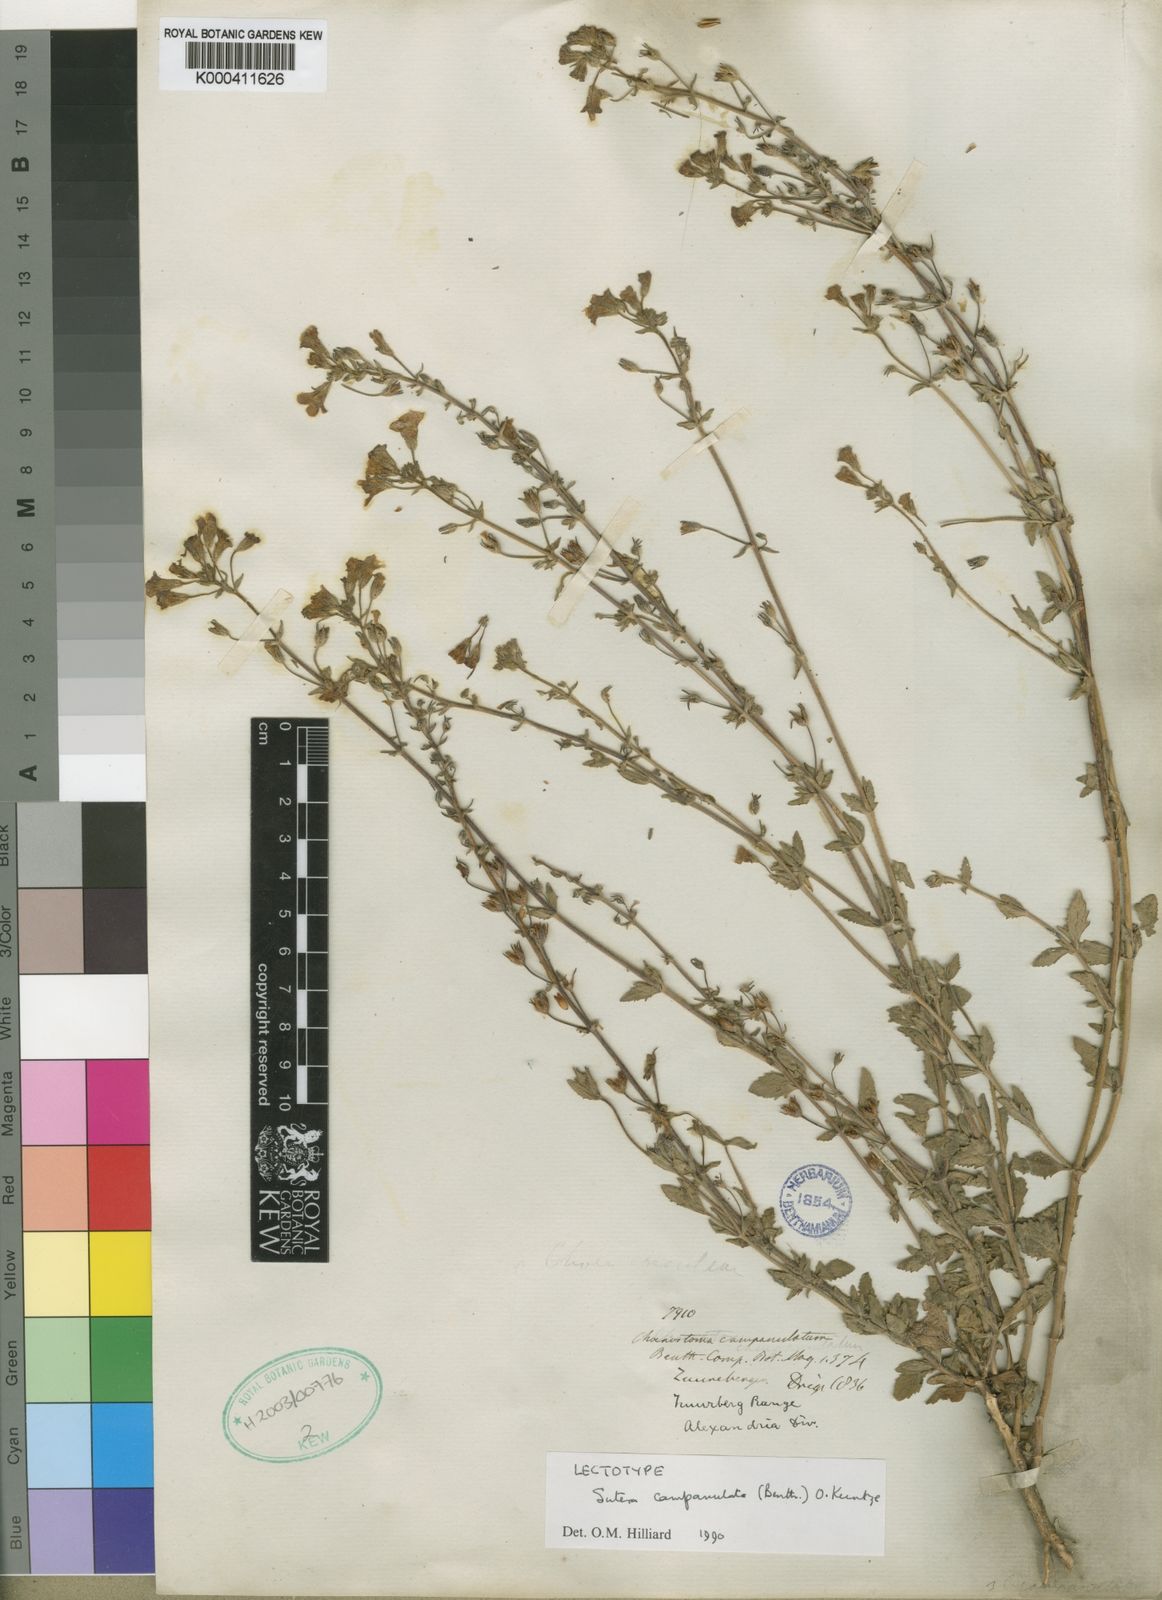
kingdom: Plantae
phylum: Tracheophyta
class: Magnoliopsida
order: Lamiales
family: Scrophulariaceae
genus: Chaenostoma
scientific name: Chaenostoma campanulatum
